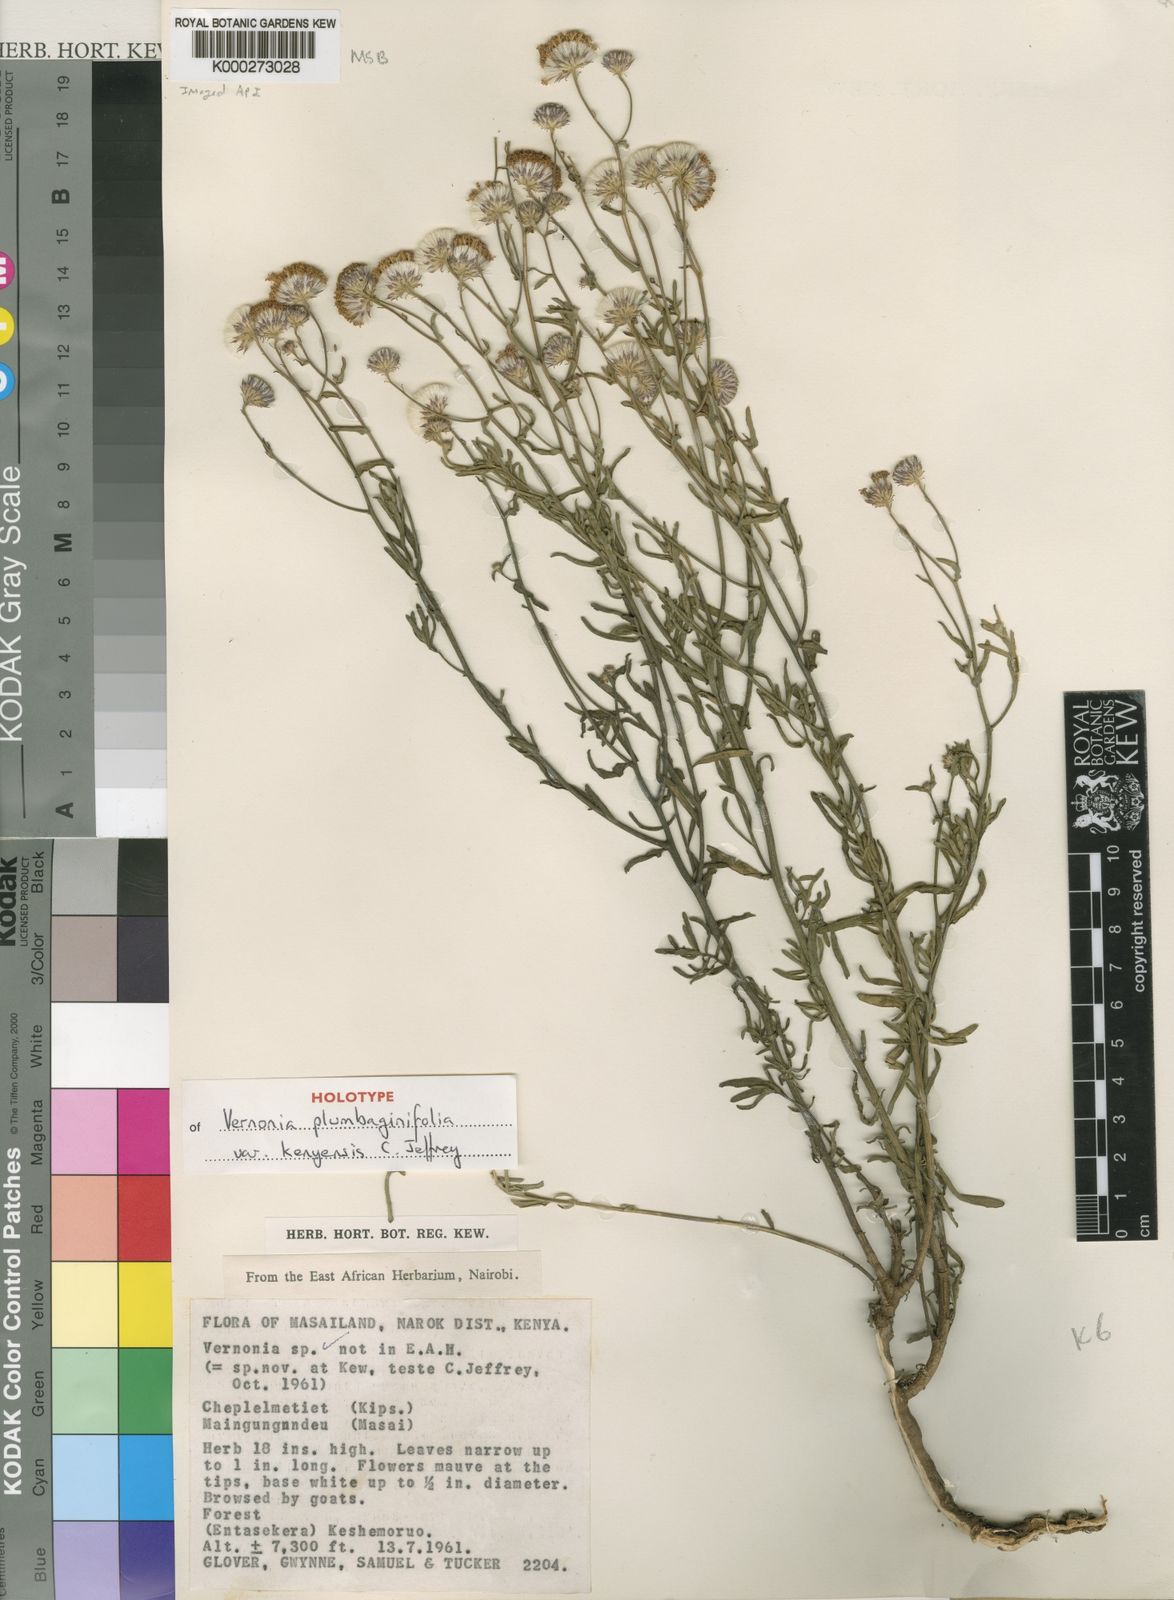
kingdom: Plantae
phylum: Tracheophyta
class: Magnoliopsida
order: Asterales
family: Asteraceae
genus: Vernonia
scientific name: Vernonia plumbaginifolia
